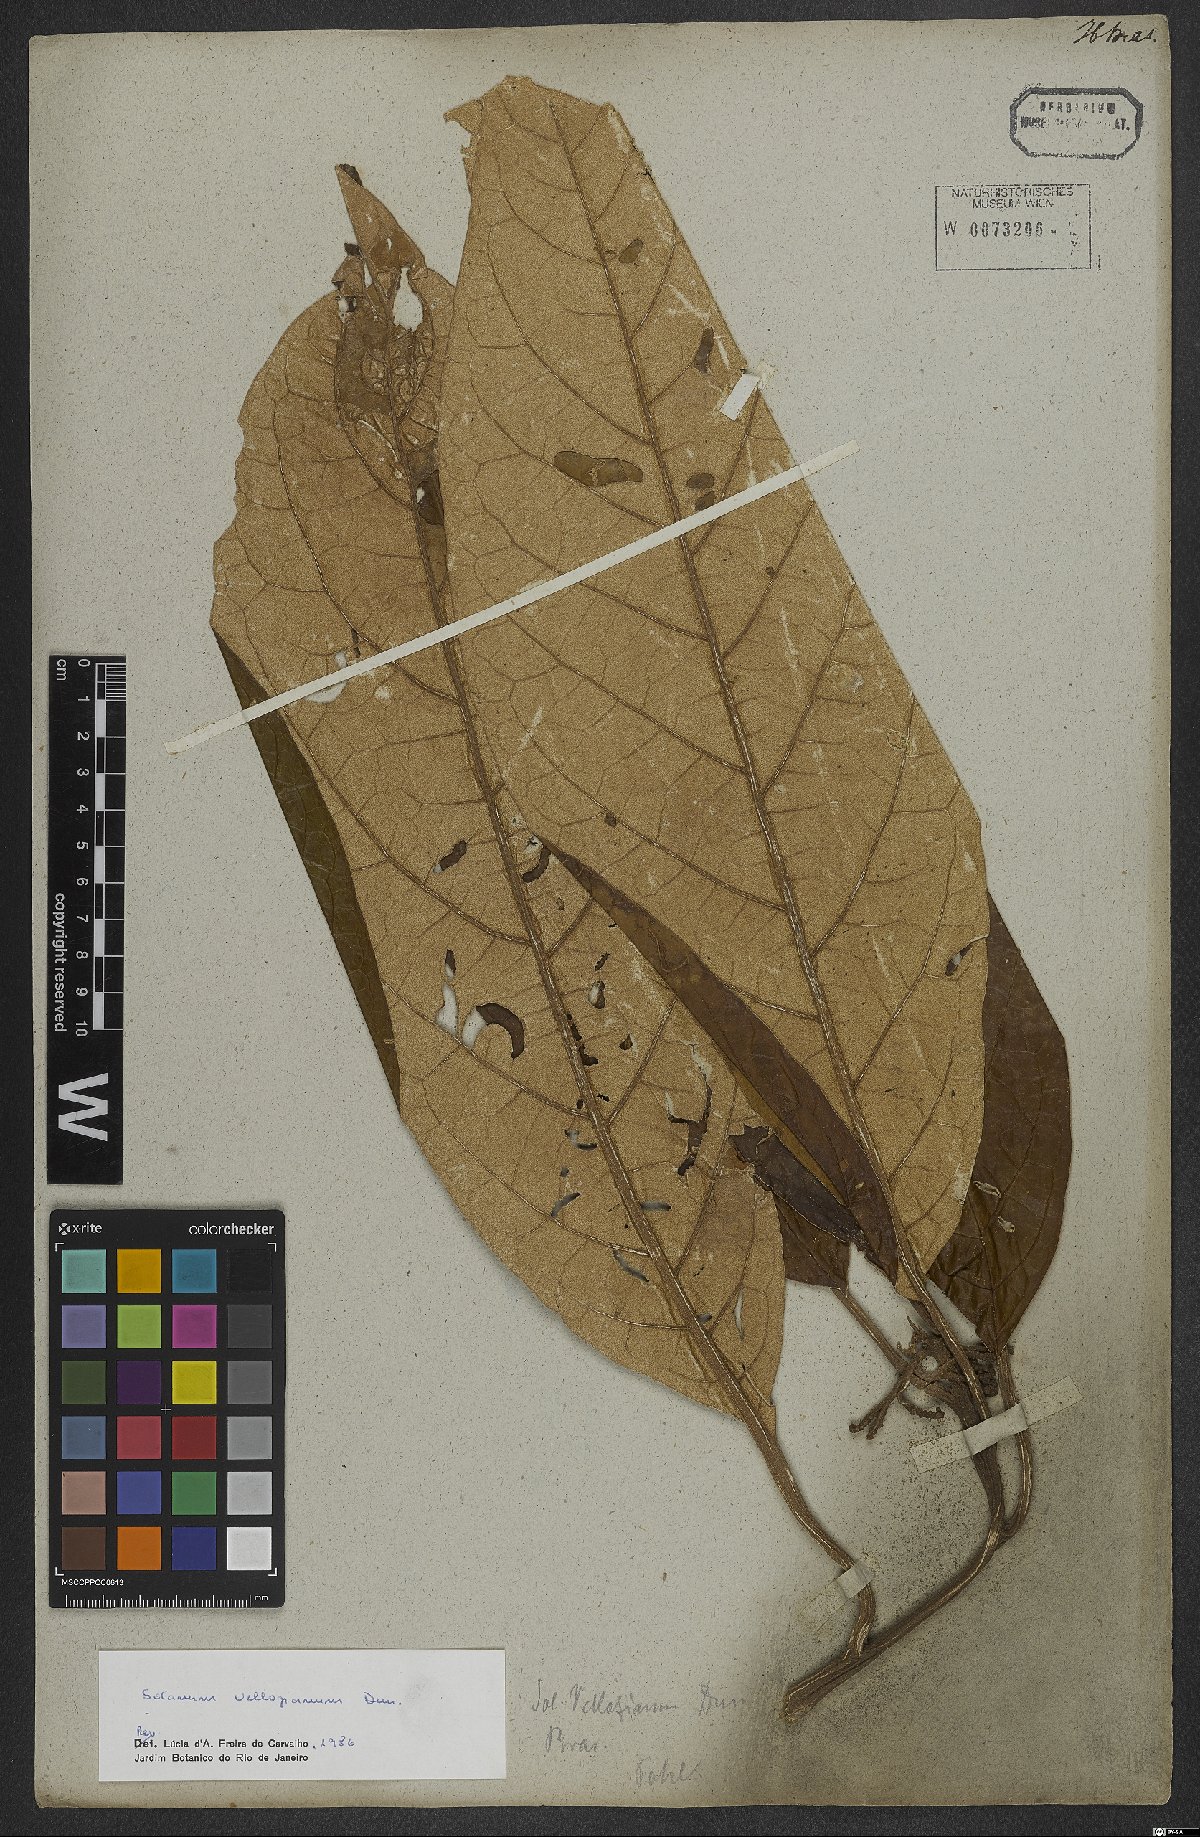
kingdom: Plantae
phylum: Tracheophyta
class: Magnoliopsida
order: Solanales
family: Solanaceae
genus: Solanum
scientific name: Solanum vellozianum
